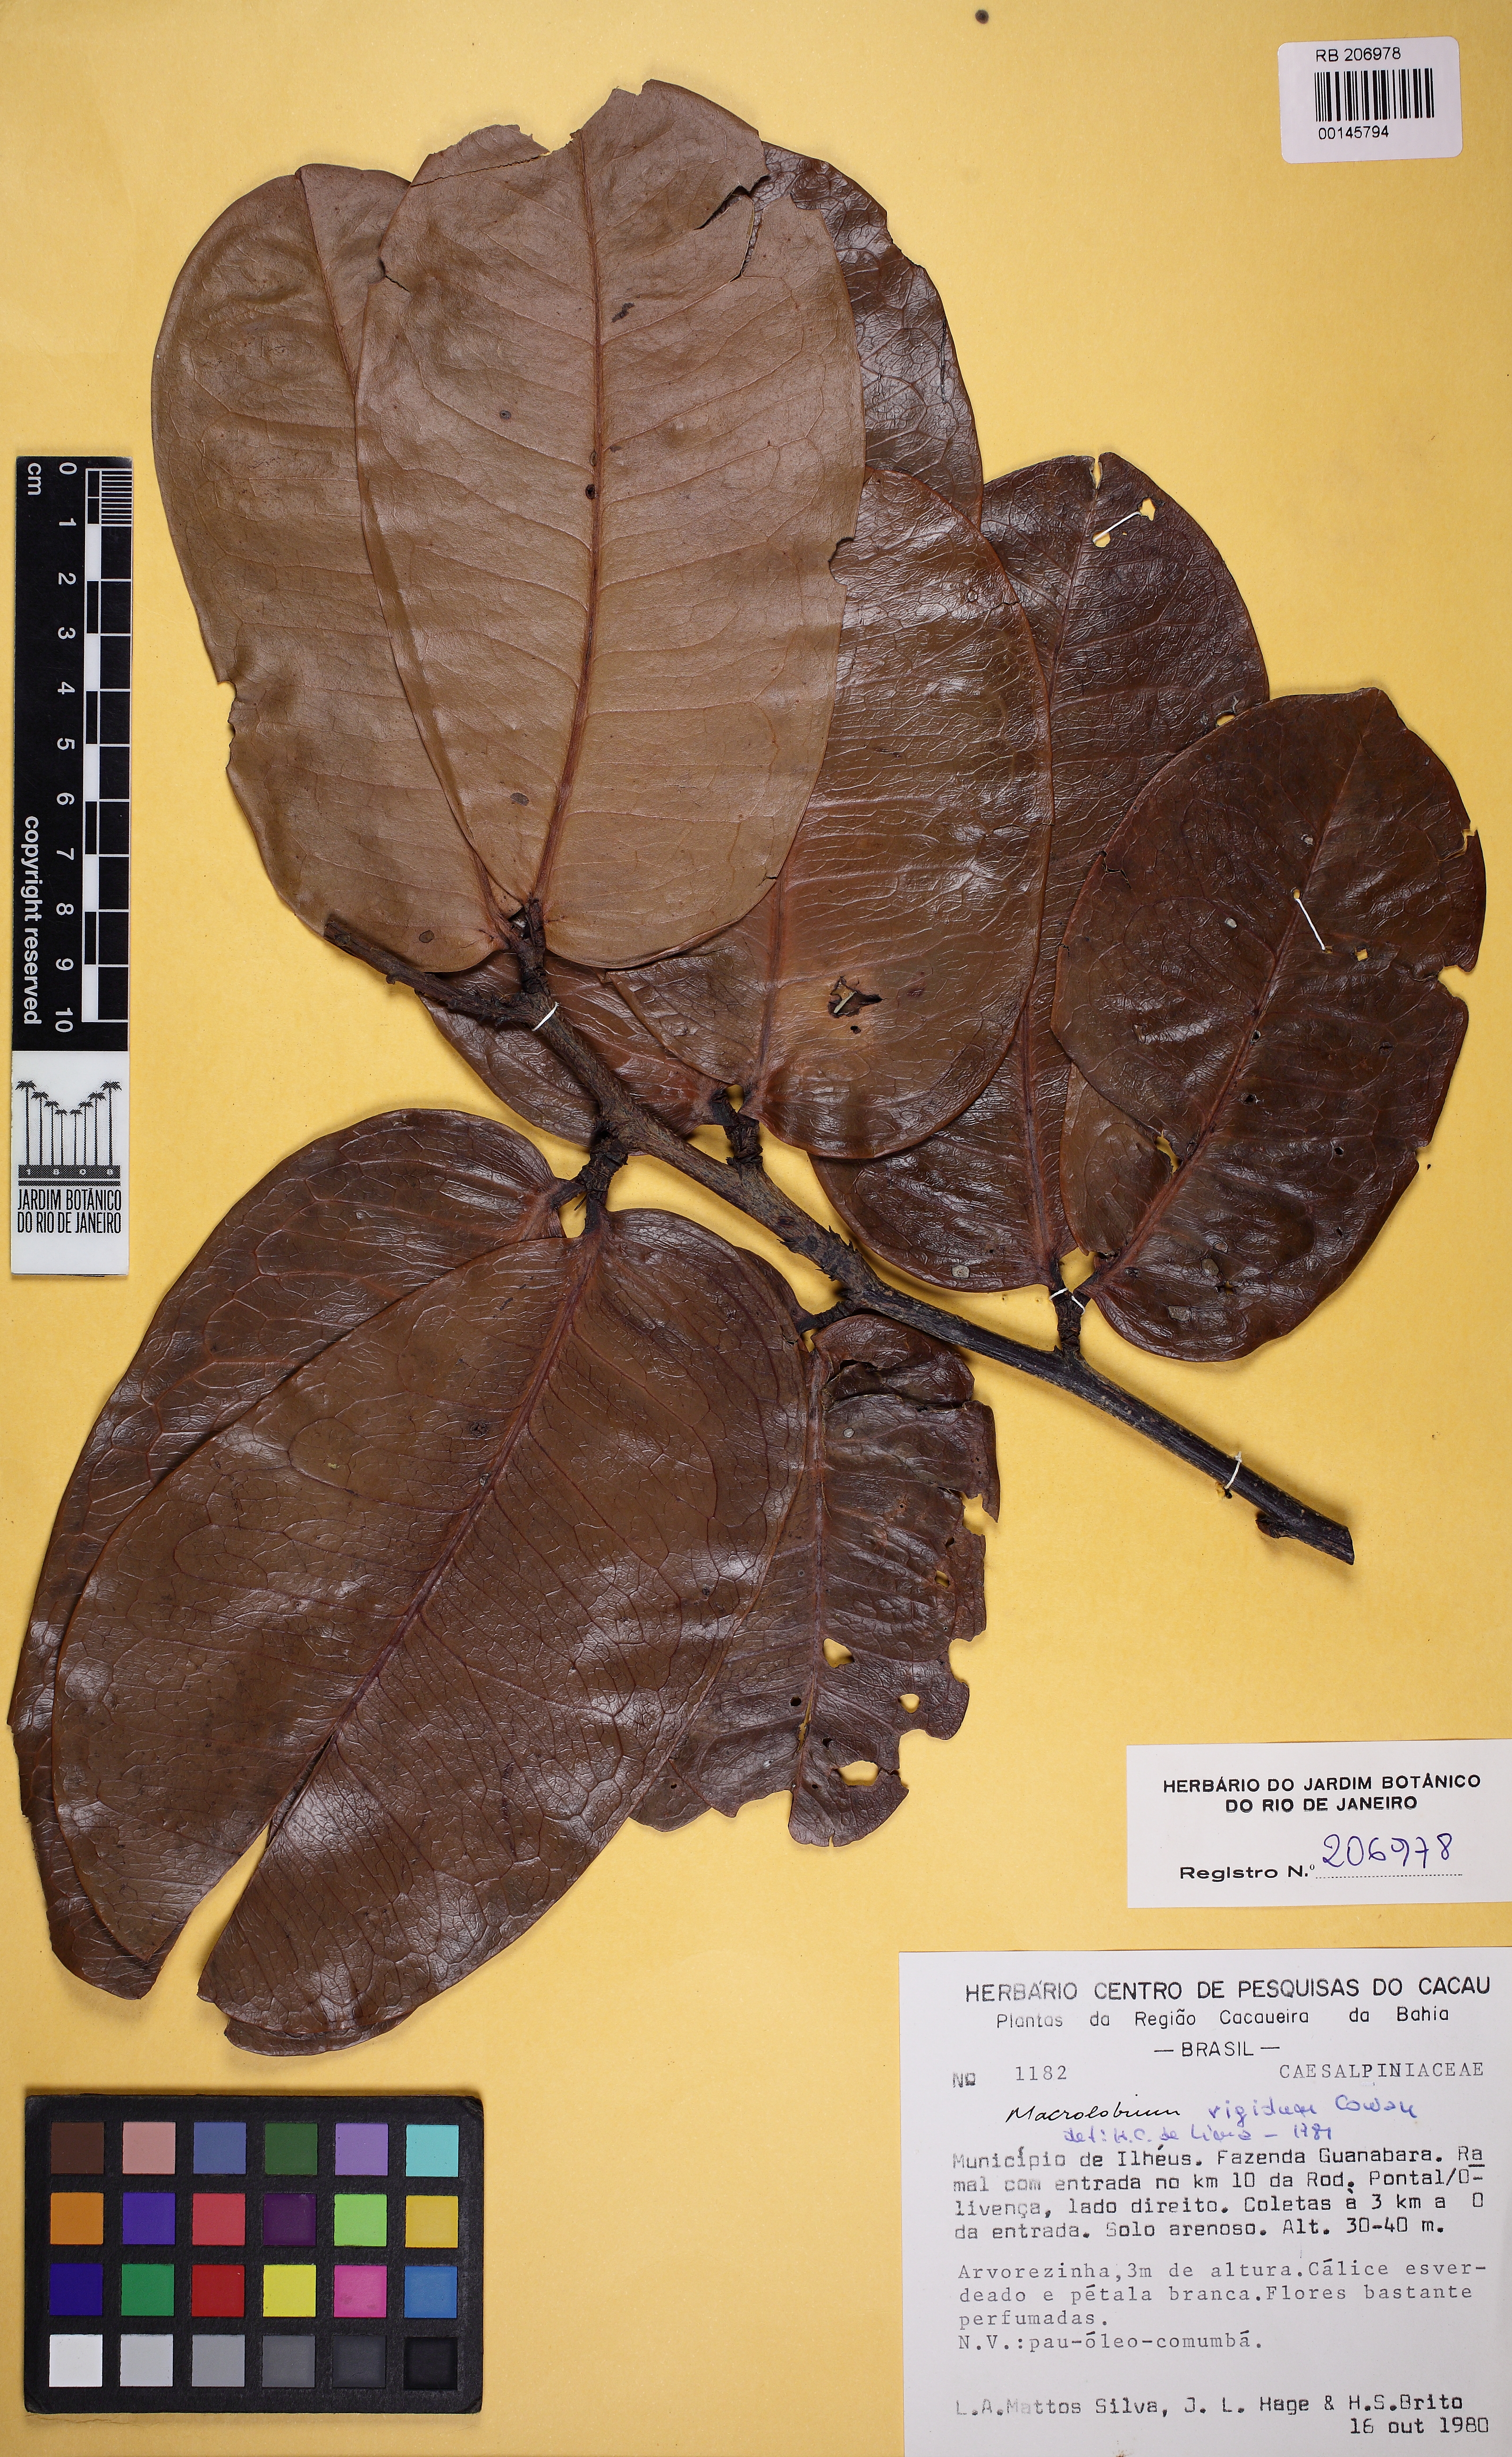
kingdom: Plantae
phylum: Tracheophyta
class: Magnoliopsida
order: Fabales
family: Fabaceae
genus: Macrolobium
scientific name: Macrolobium rigidum
